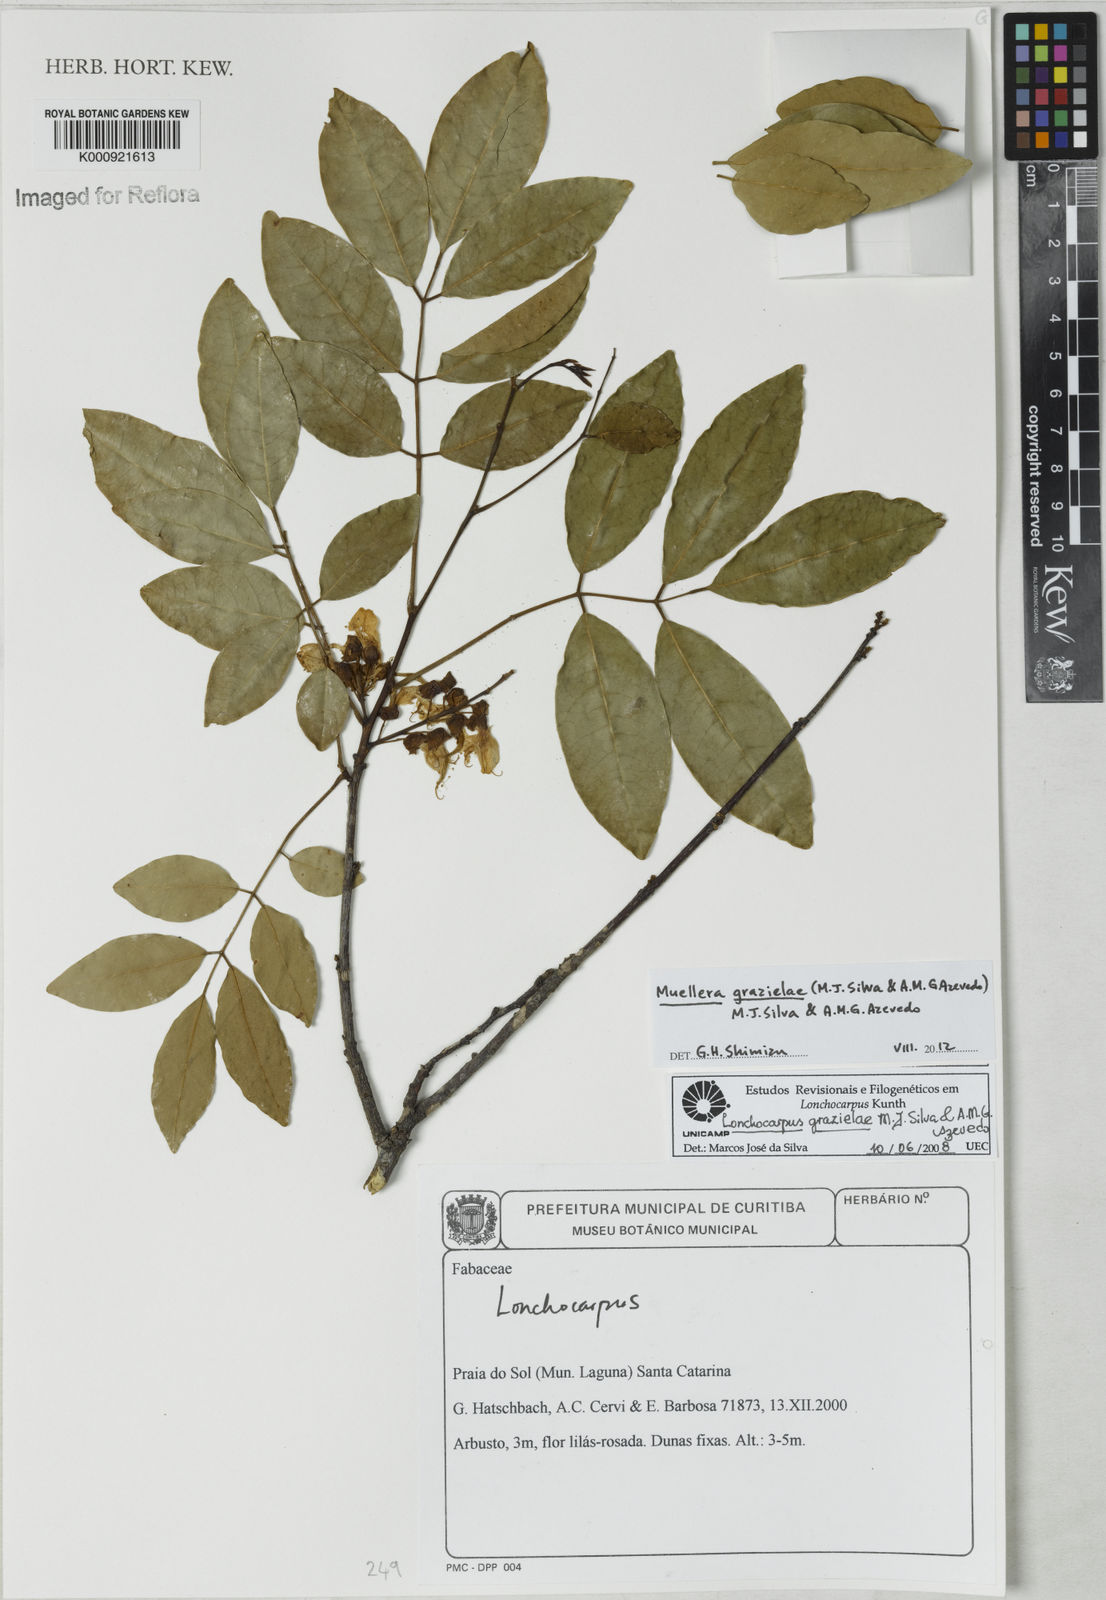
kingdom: Plantae
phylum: Tracheophyta
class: Magnoliopsida
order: Fabales
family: Fabaceae
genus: Muellera
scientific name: Muellera
